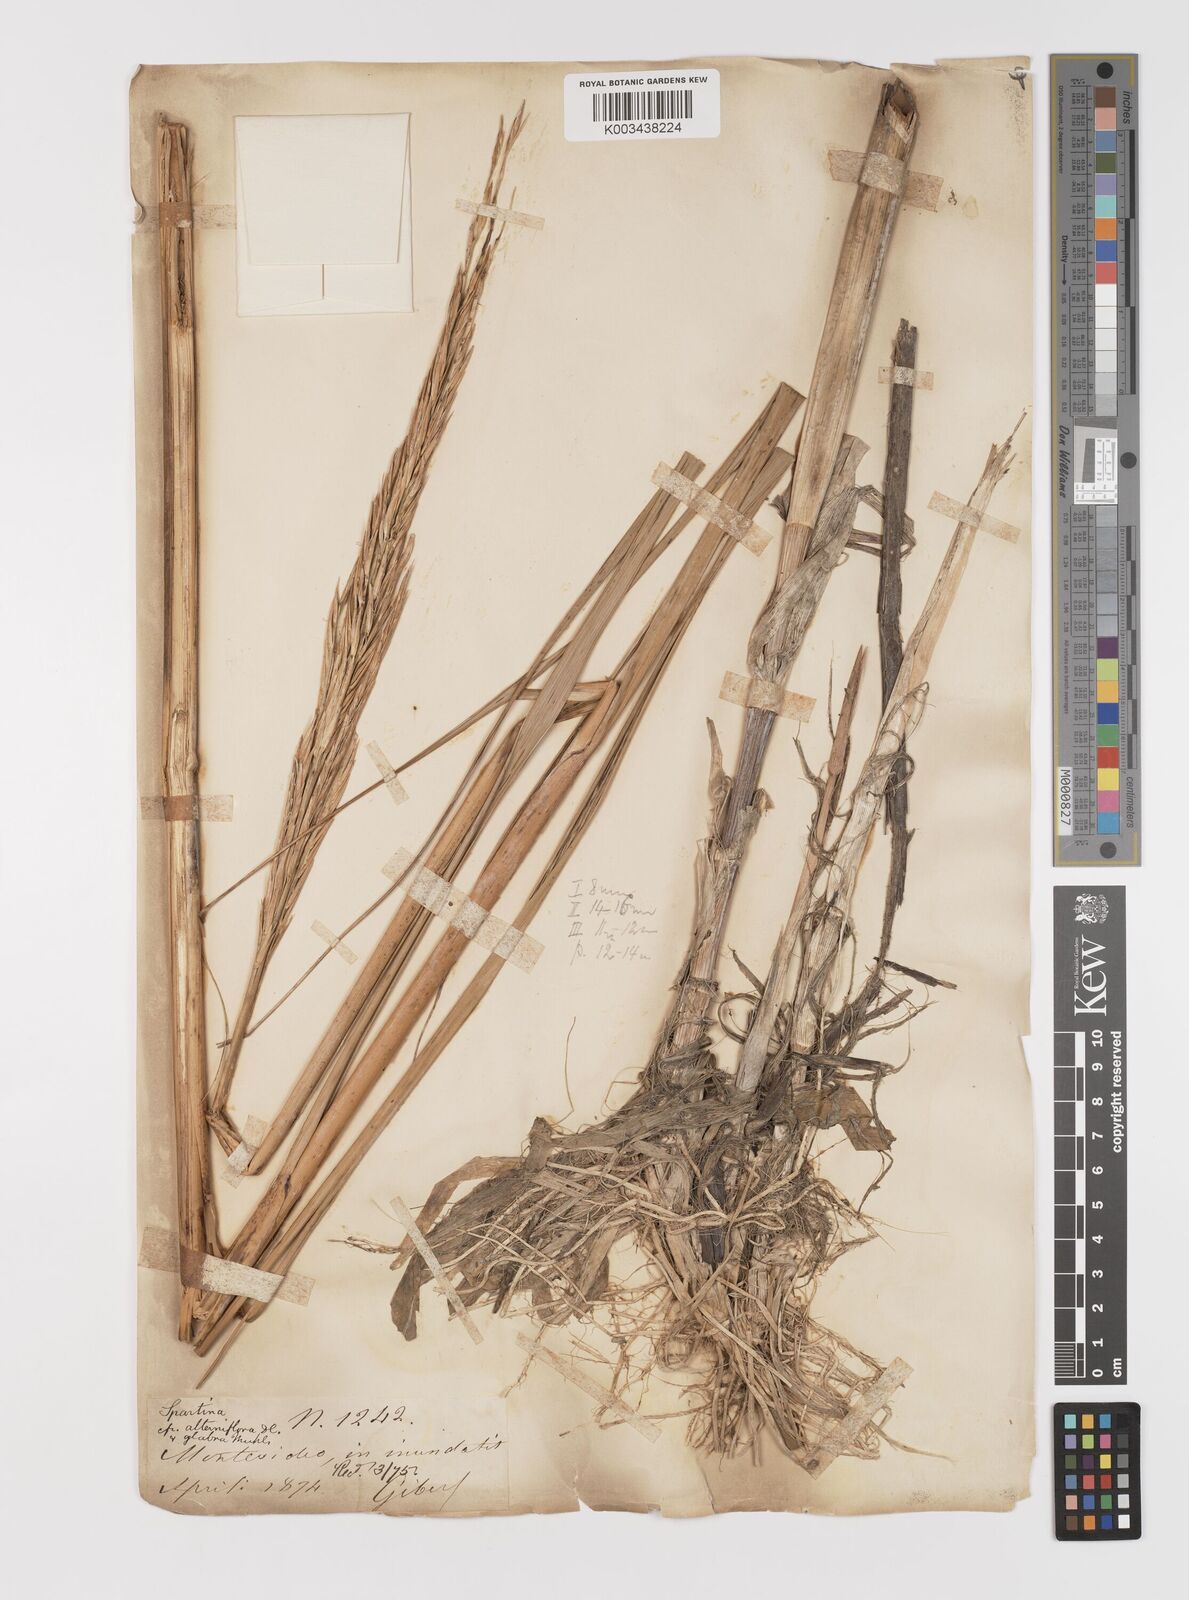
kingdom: Plantae
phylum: Tracheophyta
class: Liliopsida
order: Poales
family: Poaceae
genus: Sporobolus
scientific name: Sporobolus longispicus
